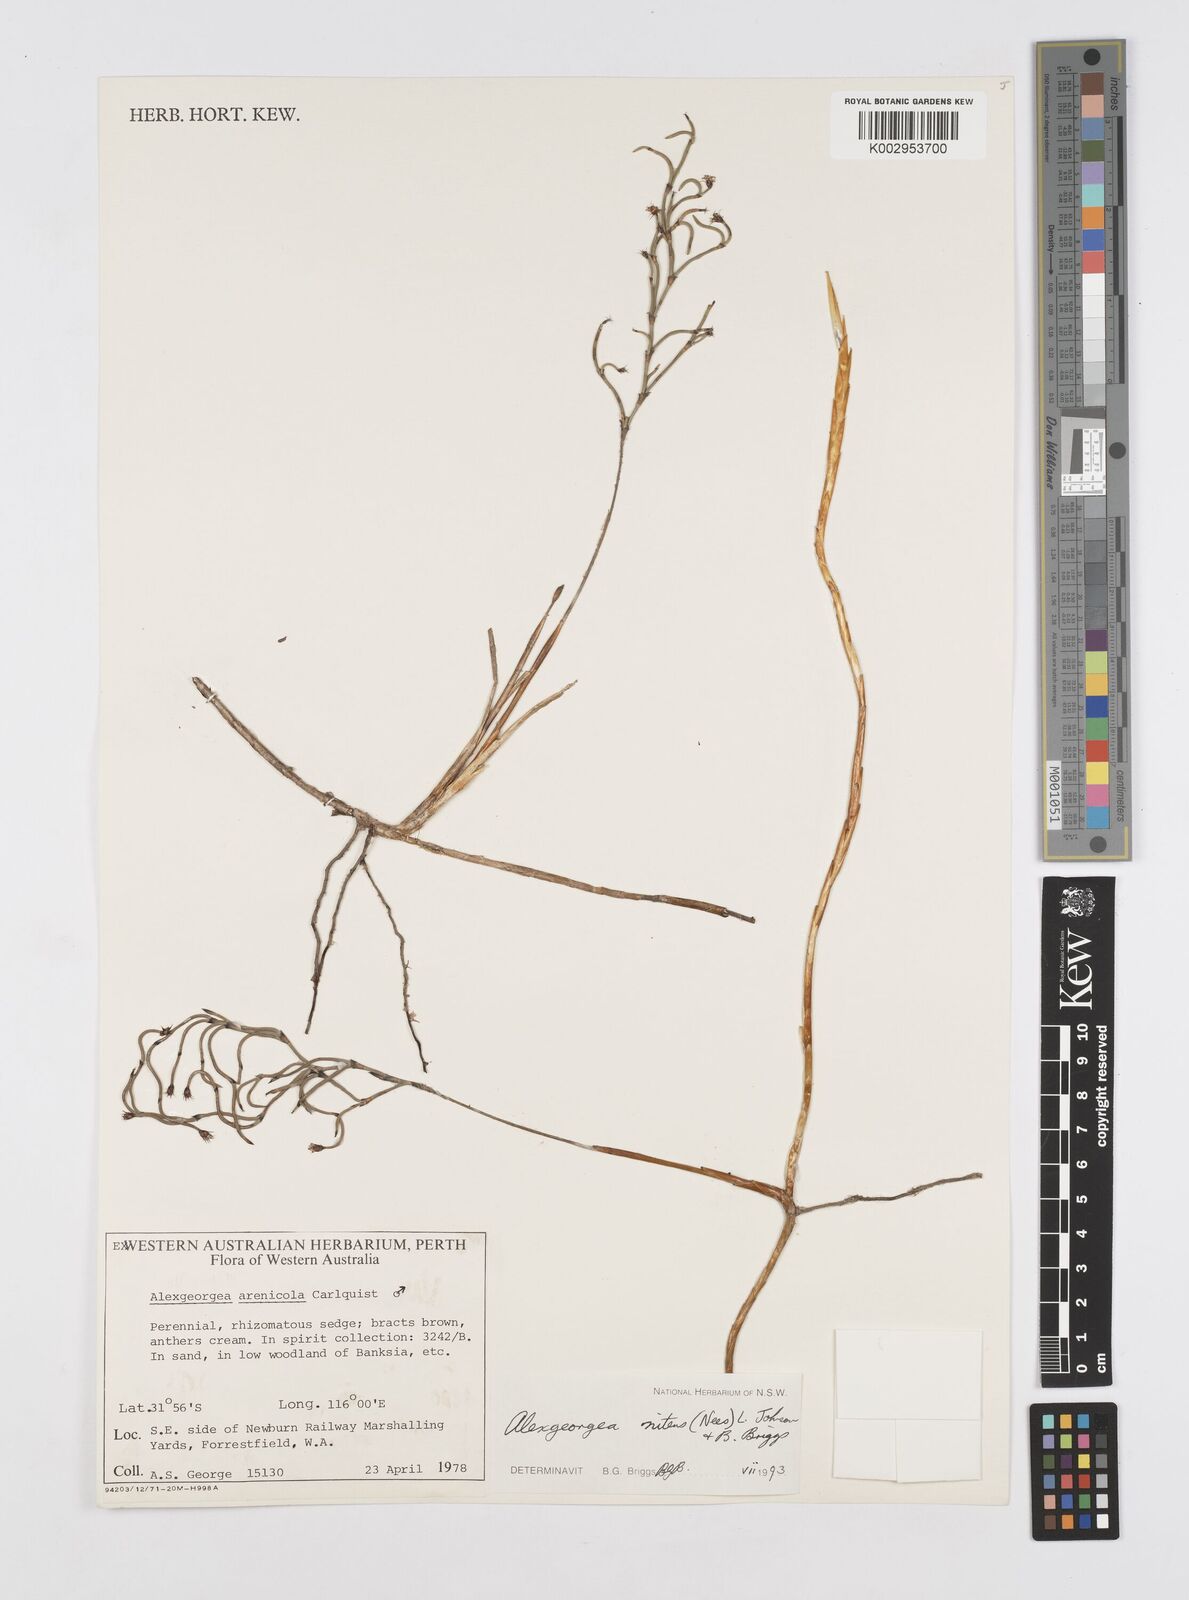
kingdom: Plantae
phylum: Tracheophyta
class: Liliopsida
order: Poales
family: Restionaceae
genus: Alexgeorgea
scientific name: Alexgeorgea nitens
